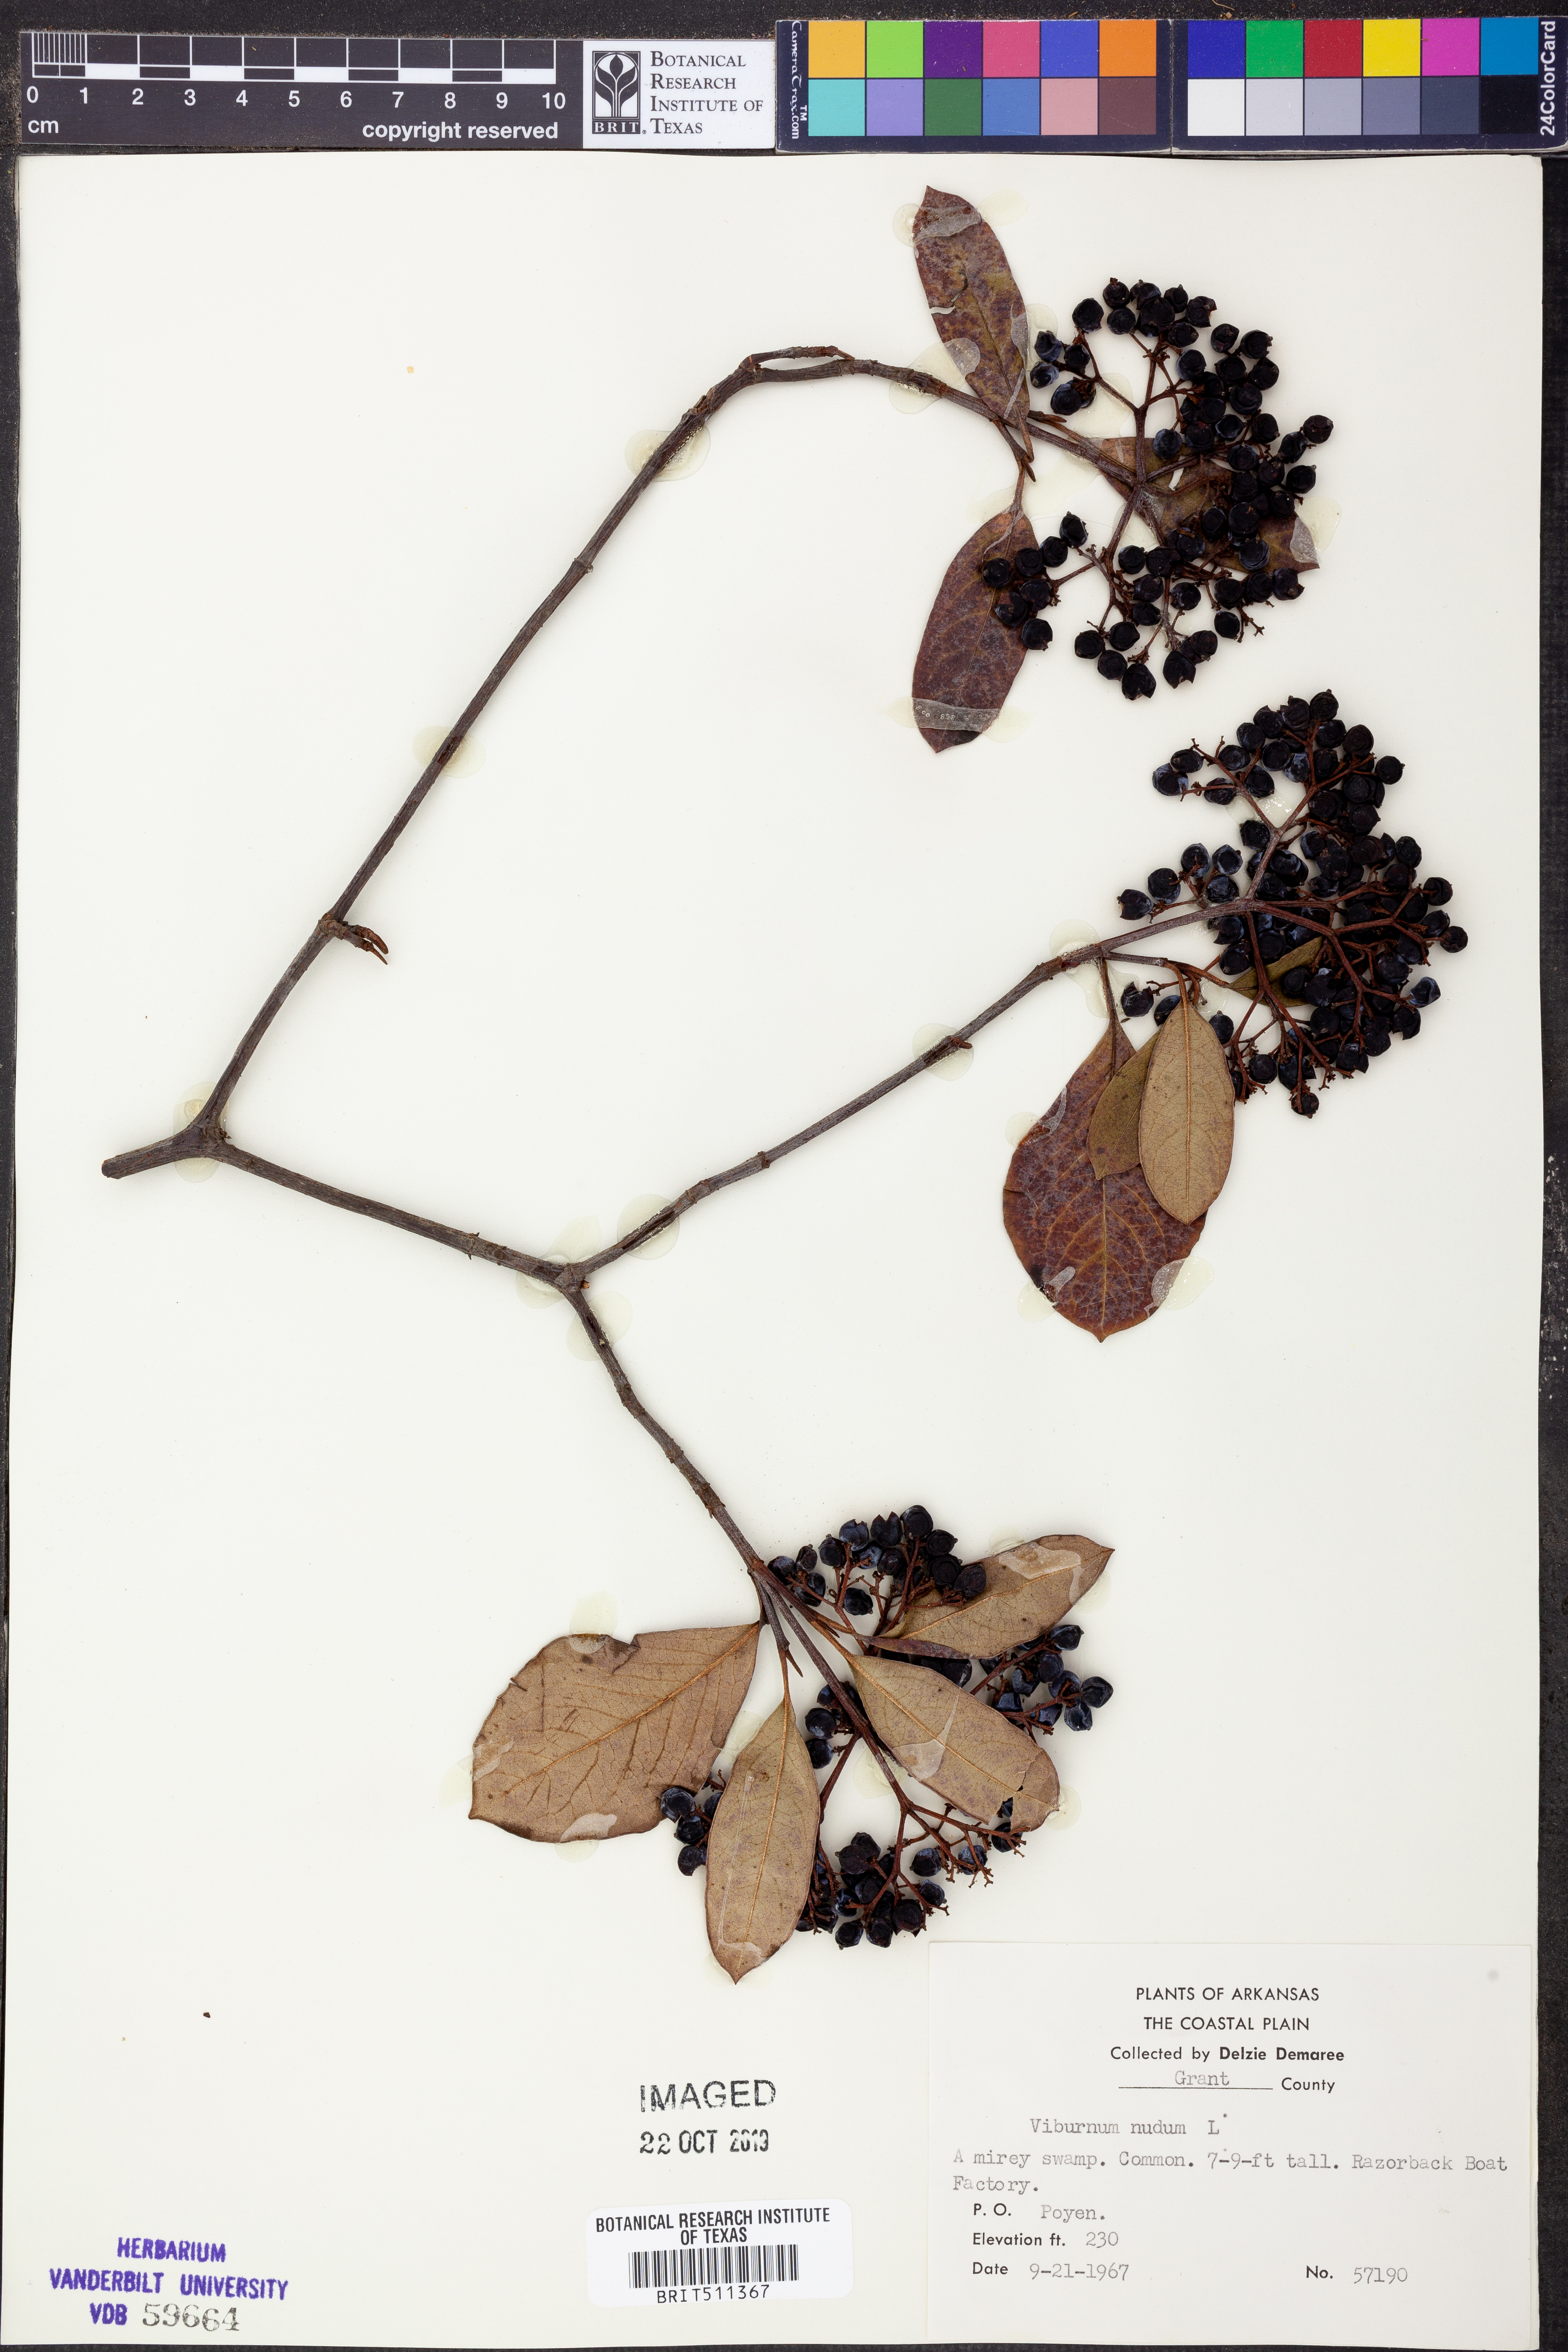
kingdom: Plantae
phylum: Tracheophyta
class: Magnoliopsida
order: Dipsacales
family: Viburnaceae
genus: Viburnum
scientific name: Viburnum nudum
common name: Possum haw
